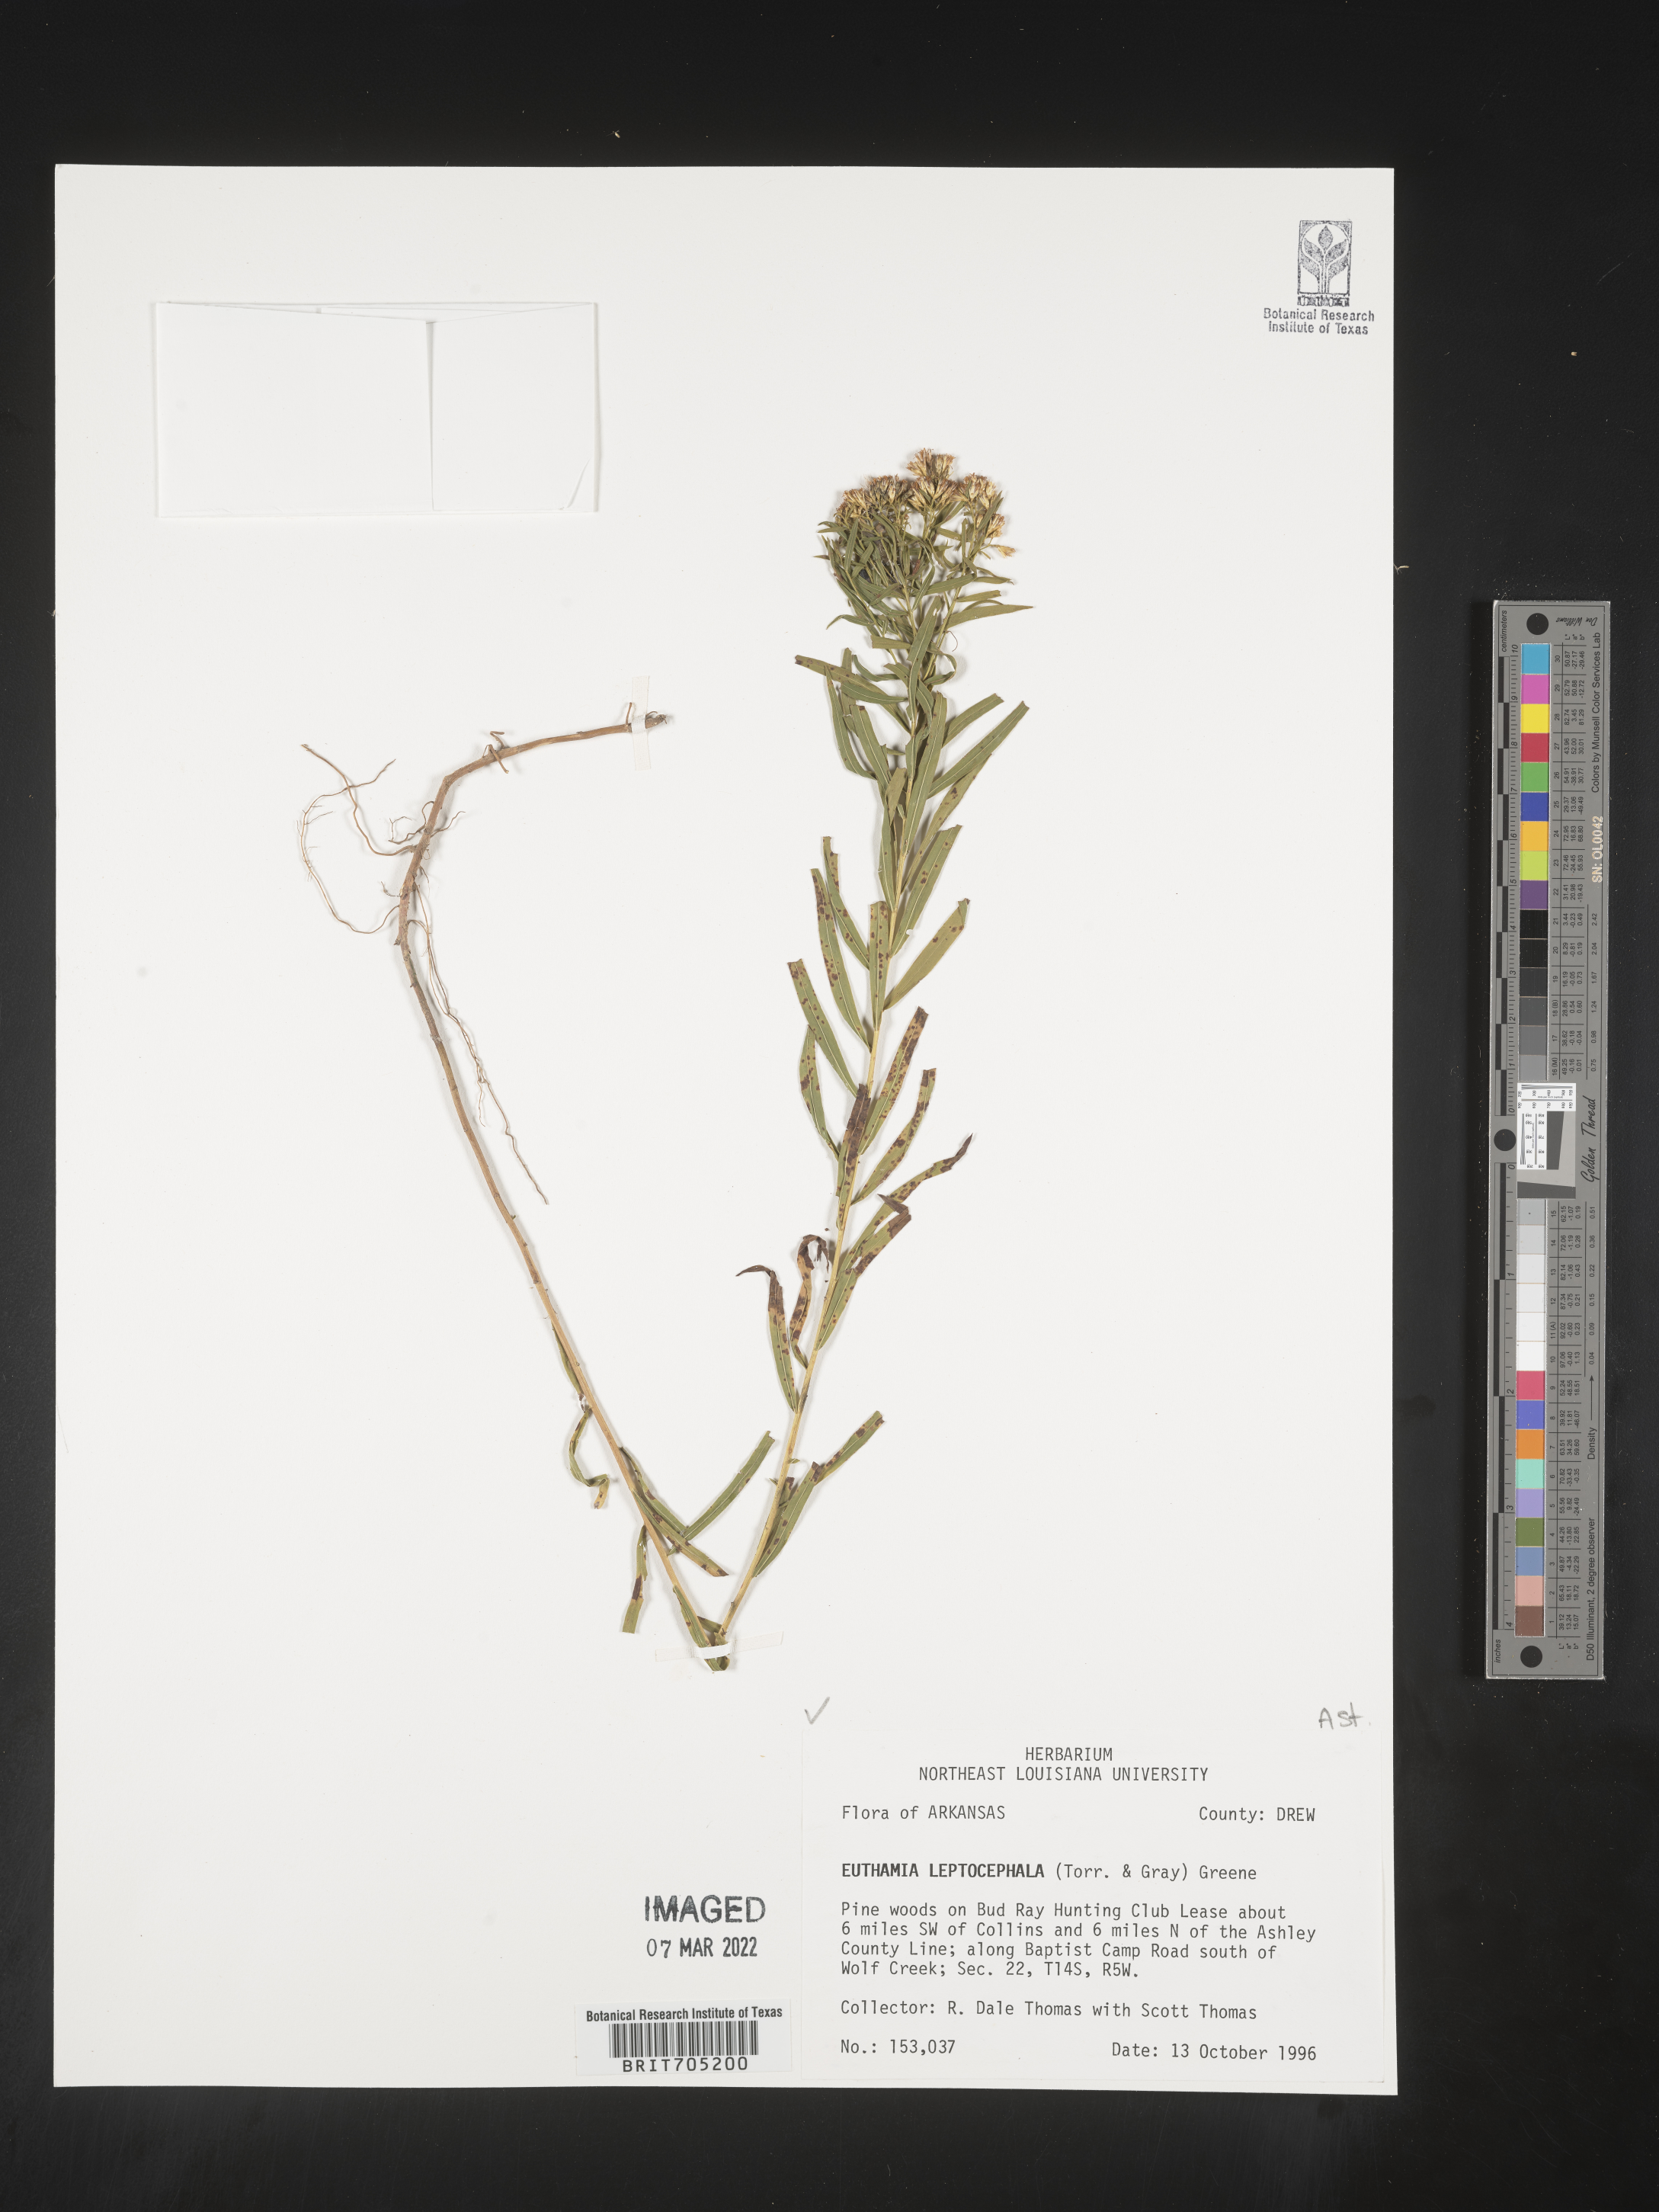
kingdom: Plantae
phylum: Tracheophyta
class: Magnoliopsida
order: Asterales
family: Asteraceae
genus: Euthamia
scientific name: Euthamia leptocephala
